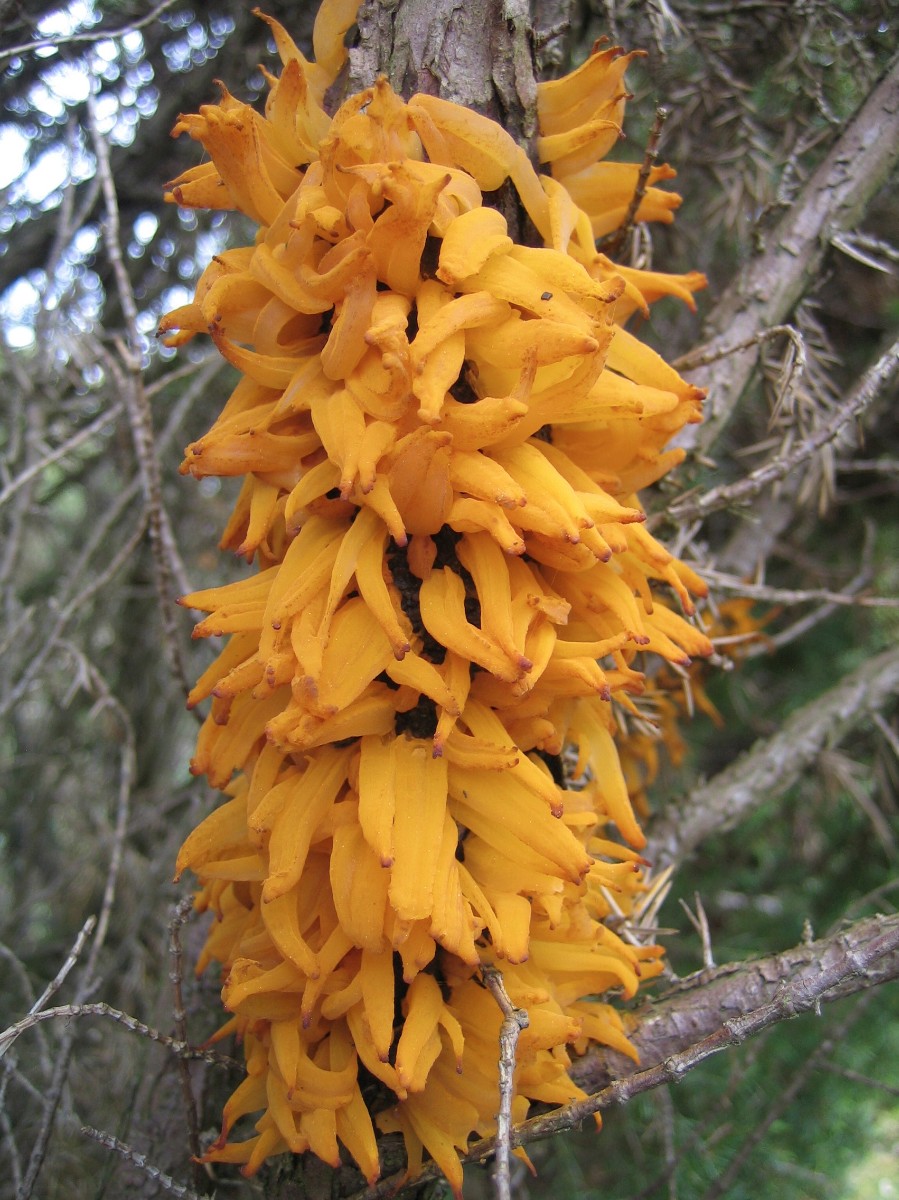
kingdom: Fungi
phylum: Basidiomycota
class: Pucciniomycetes
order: Pucciniales
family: Gymnosporangiaceae
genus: Gymnosporangium
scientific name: Gymnosporangium clavariiforme
